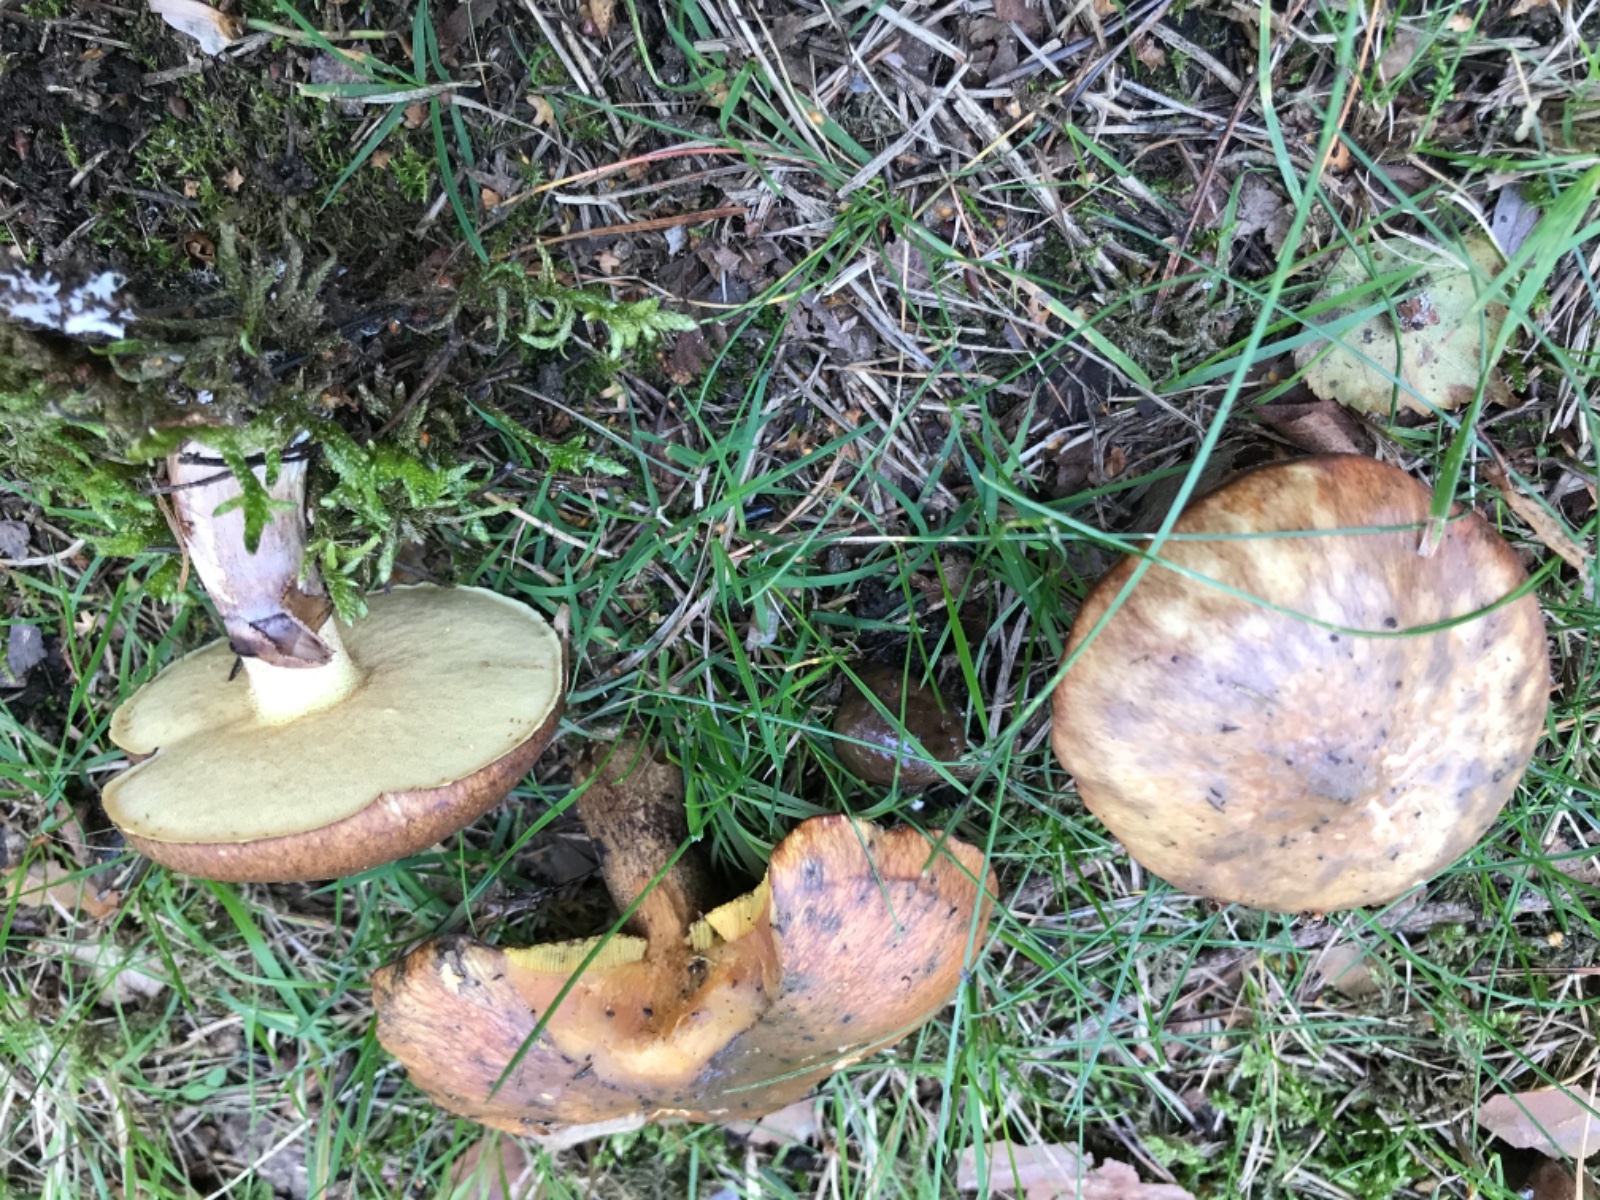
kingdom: Fungi
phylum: Basidiomycota
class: Agaricomycetes
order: Boletales
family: Suillaceae
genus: Suillus
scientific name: Suillus luteus
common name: brungul slimrørhat
